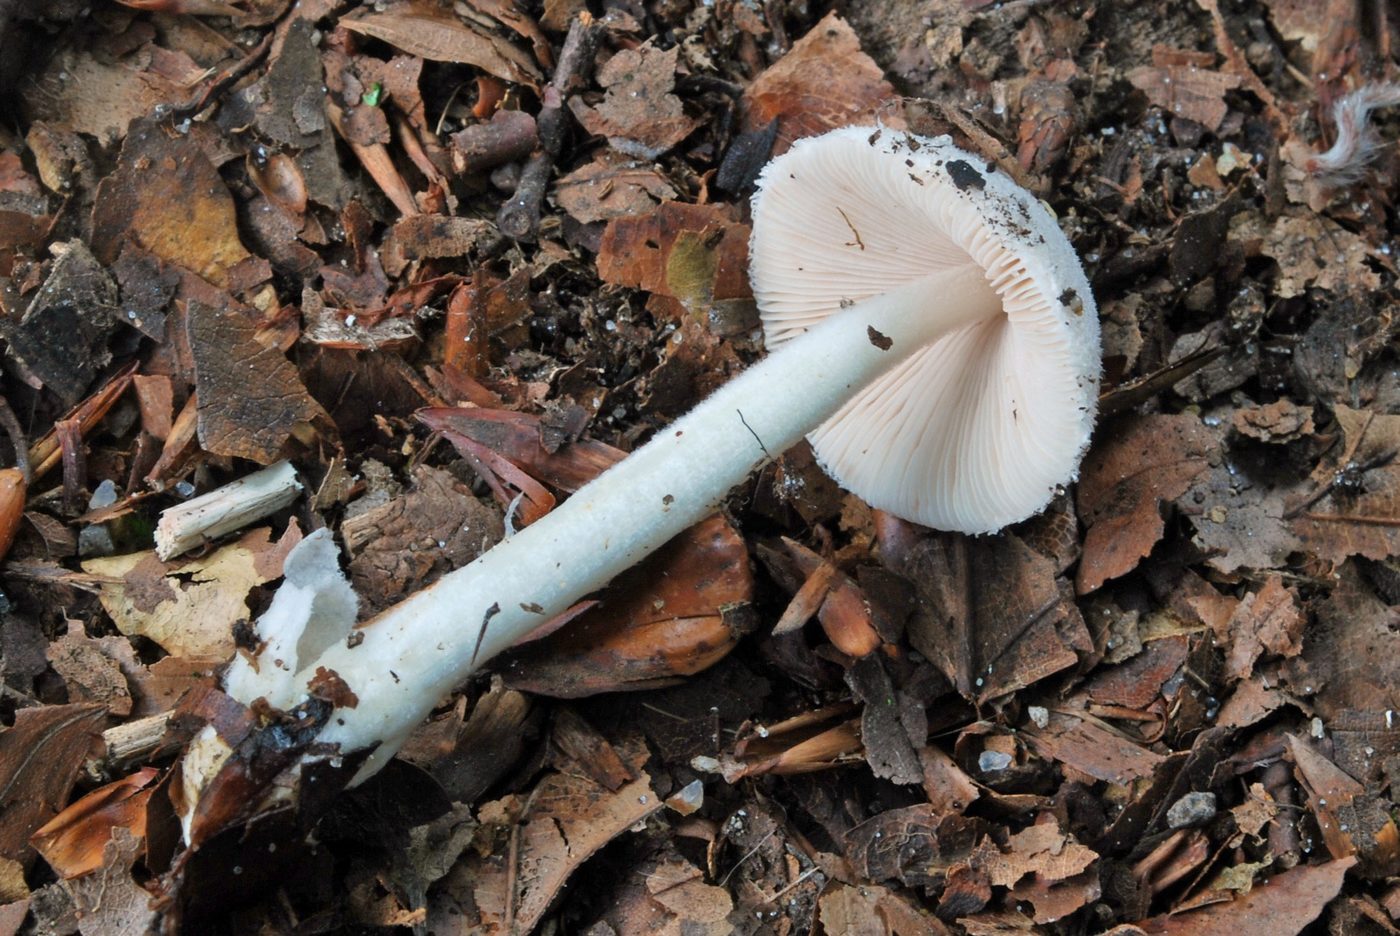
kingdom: Fungi
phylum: Basidiomycota
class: Agaricomycetes
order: Agaricales
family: Pluteaceae
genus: Volvariella
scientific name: Volvariella hypopithys
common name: dunstokket posesvamp
